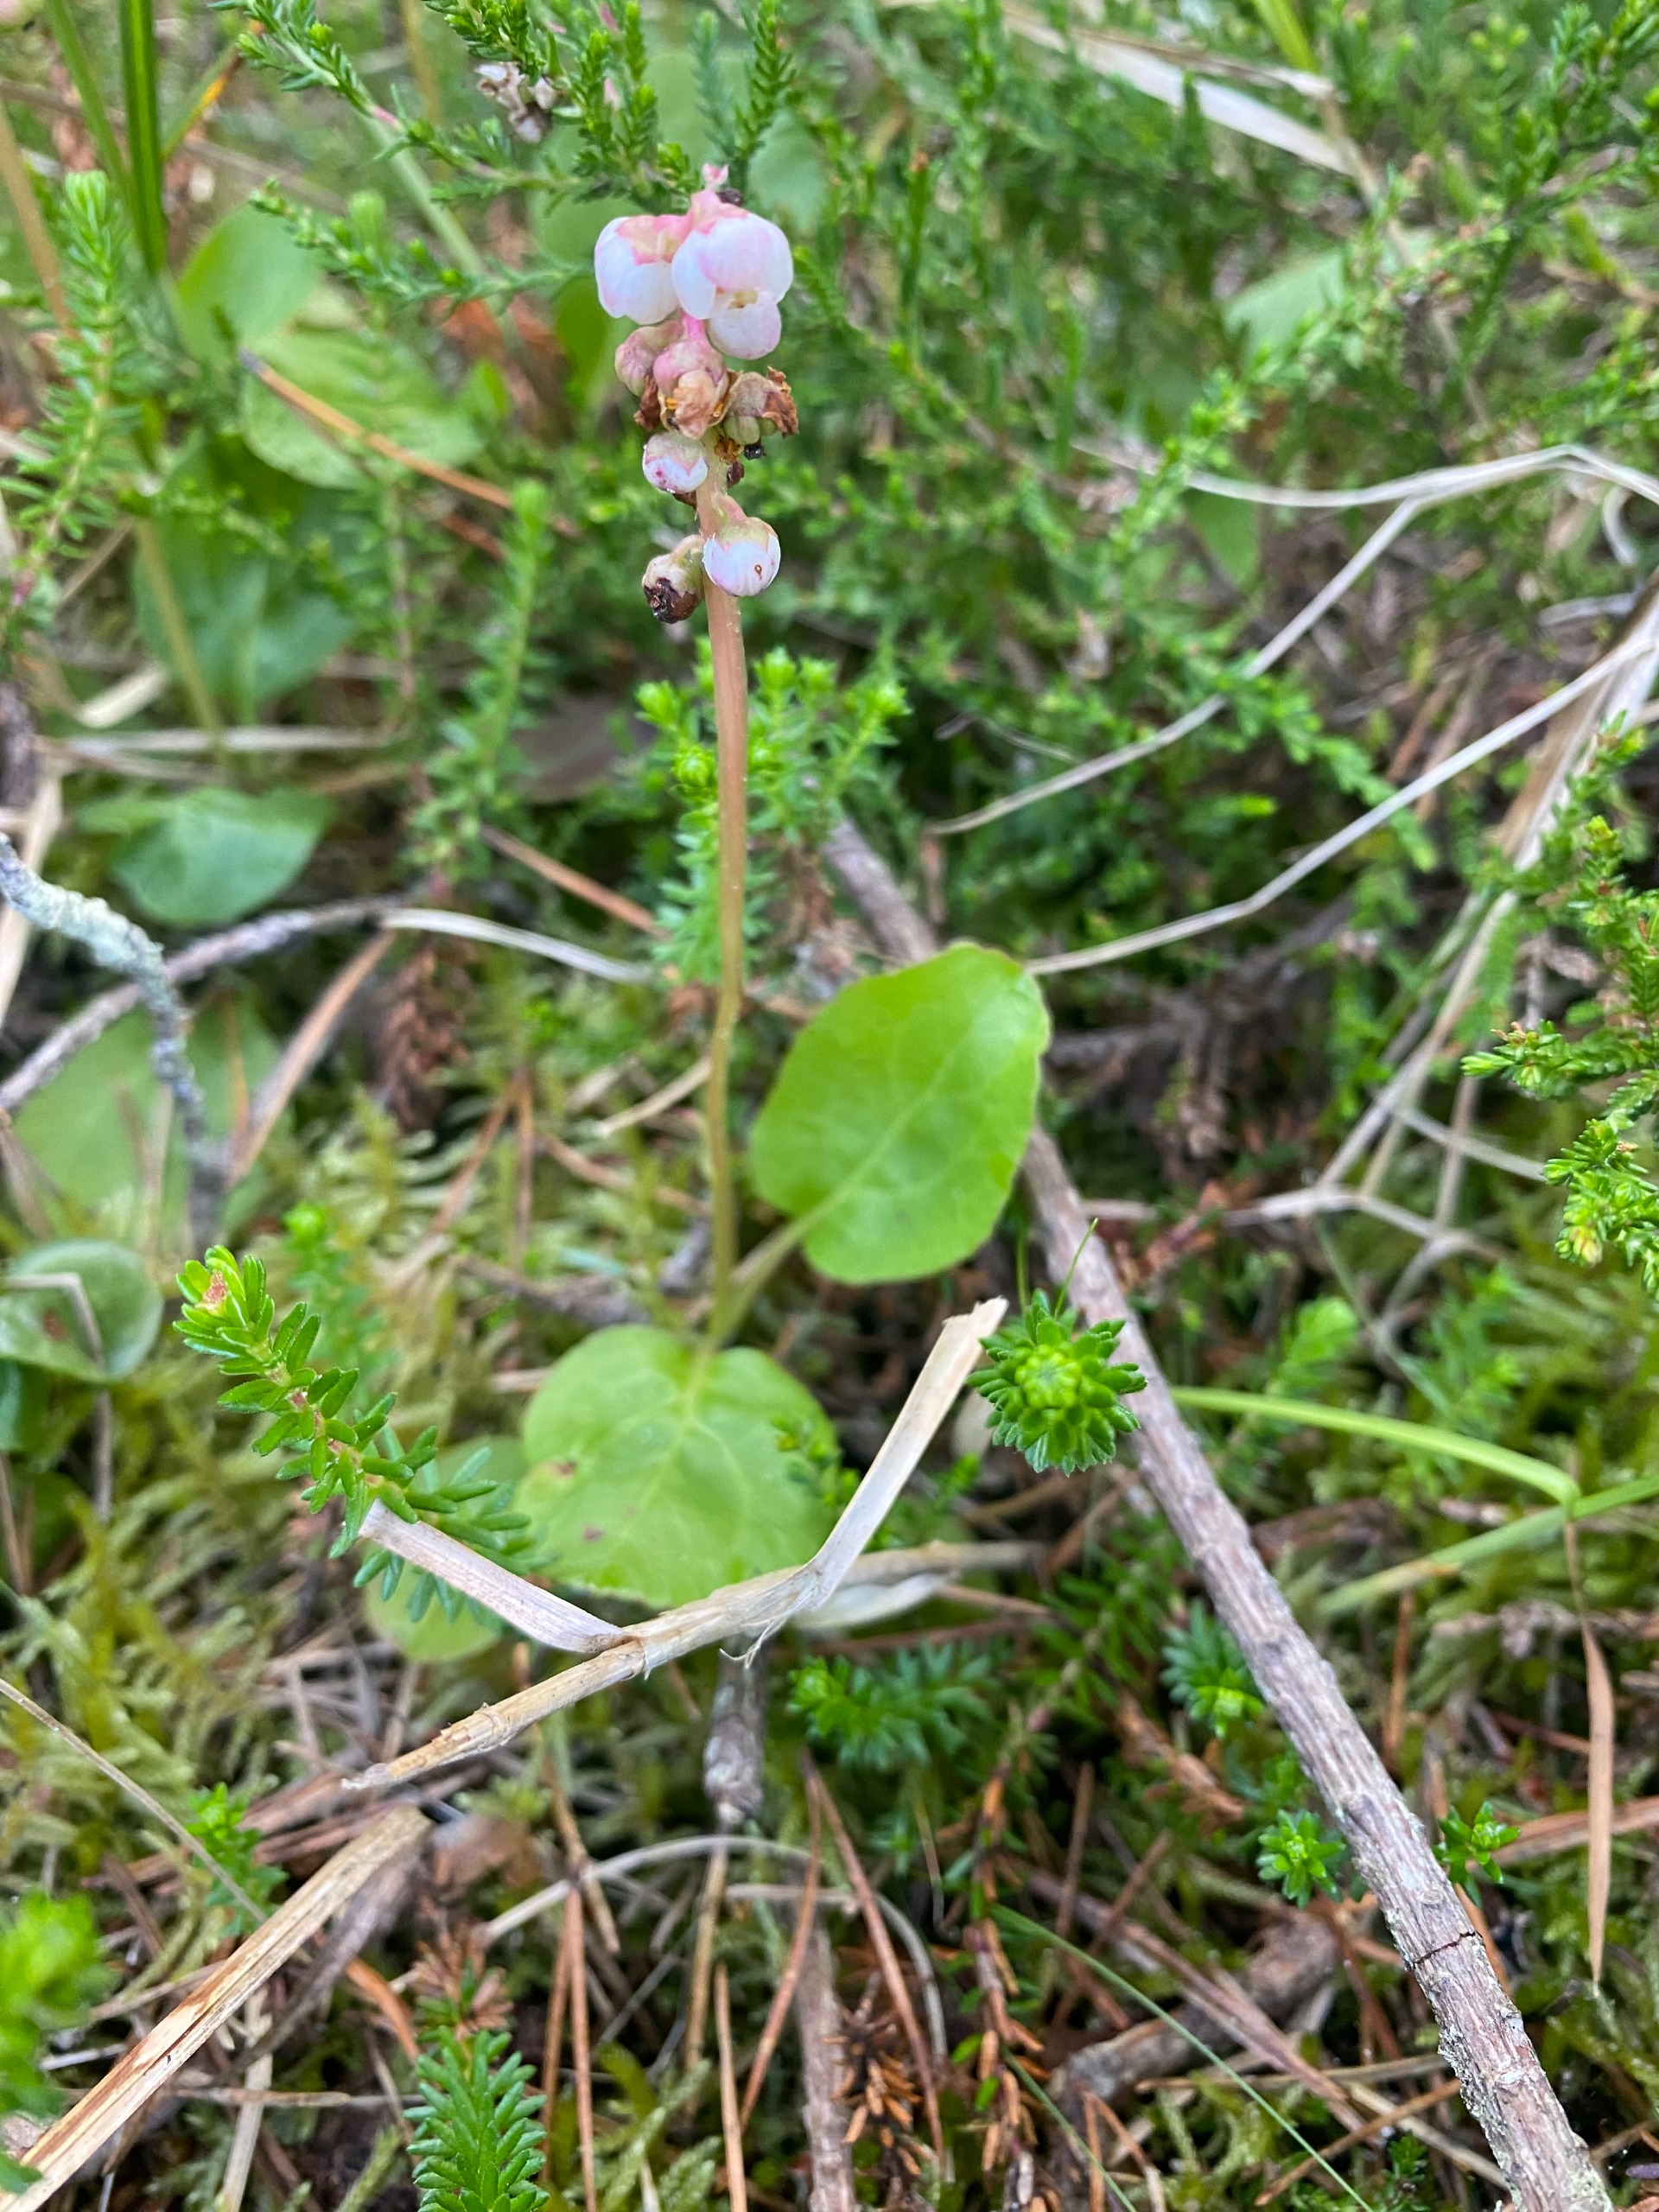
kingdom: Plantae
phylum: Tracheophyta
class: Magnoliopsida
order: Ericales
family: Ericaceae
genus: Pyrola
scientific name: Pyrola minor
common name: Liden vintergrøn
